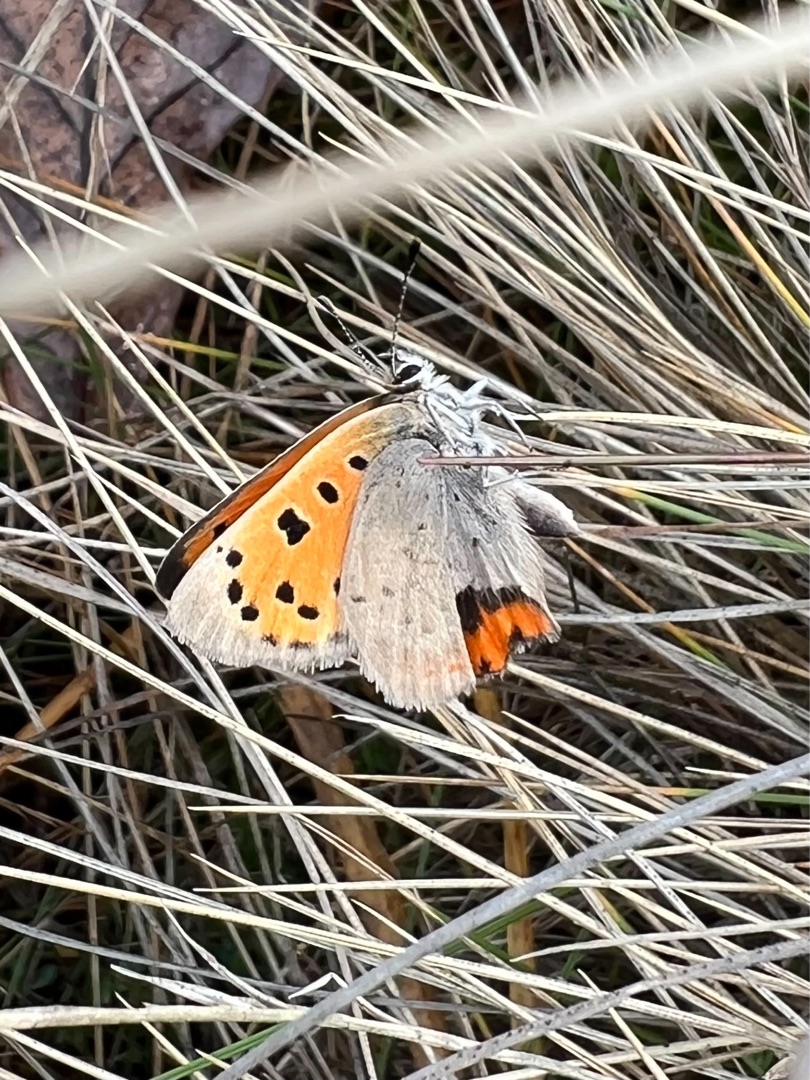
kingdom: Animalia
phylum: Arthropoda
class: Insecta
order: Lepidoptera
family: Lycaenidae
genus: Lycaena
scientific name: Lycaena phlaeas
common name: Lille ildfugl
